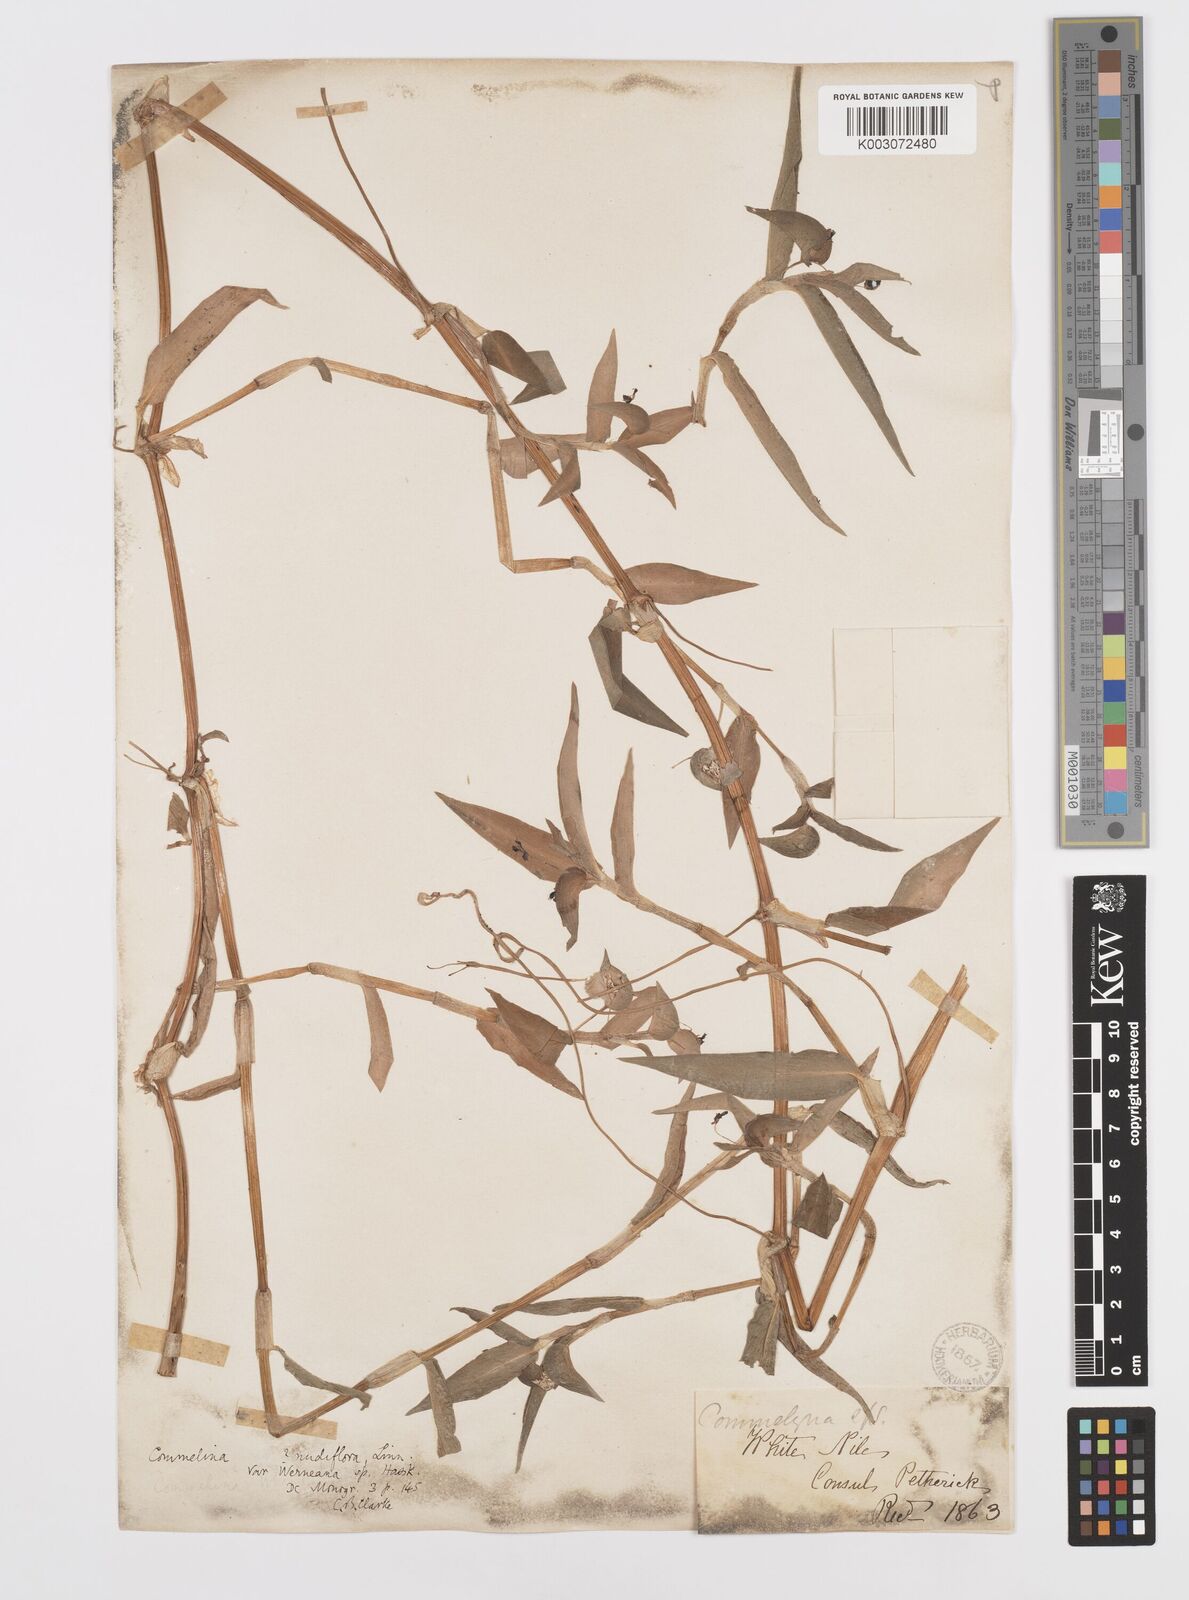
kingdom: Plantae
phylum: Tracheophyta
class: Liliopsida
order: Commelinales
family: Commelinaceae
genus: Commelina
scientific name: Commelina diffusa
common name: Climbing dayflower
